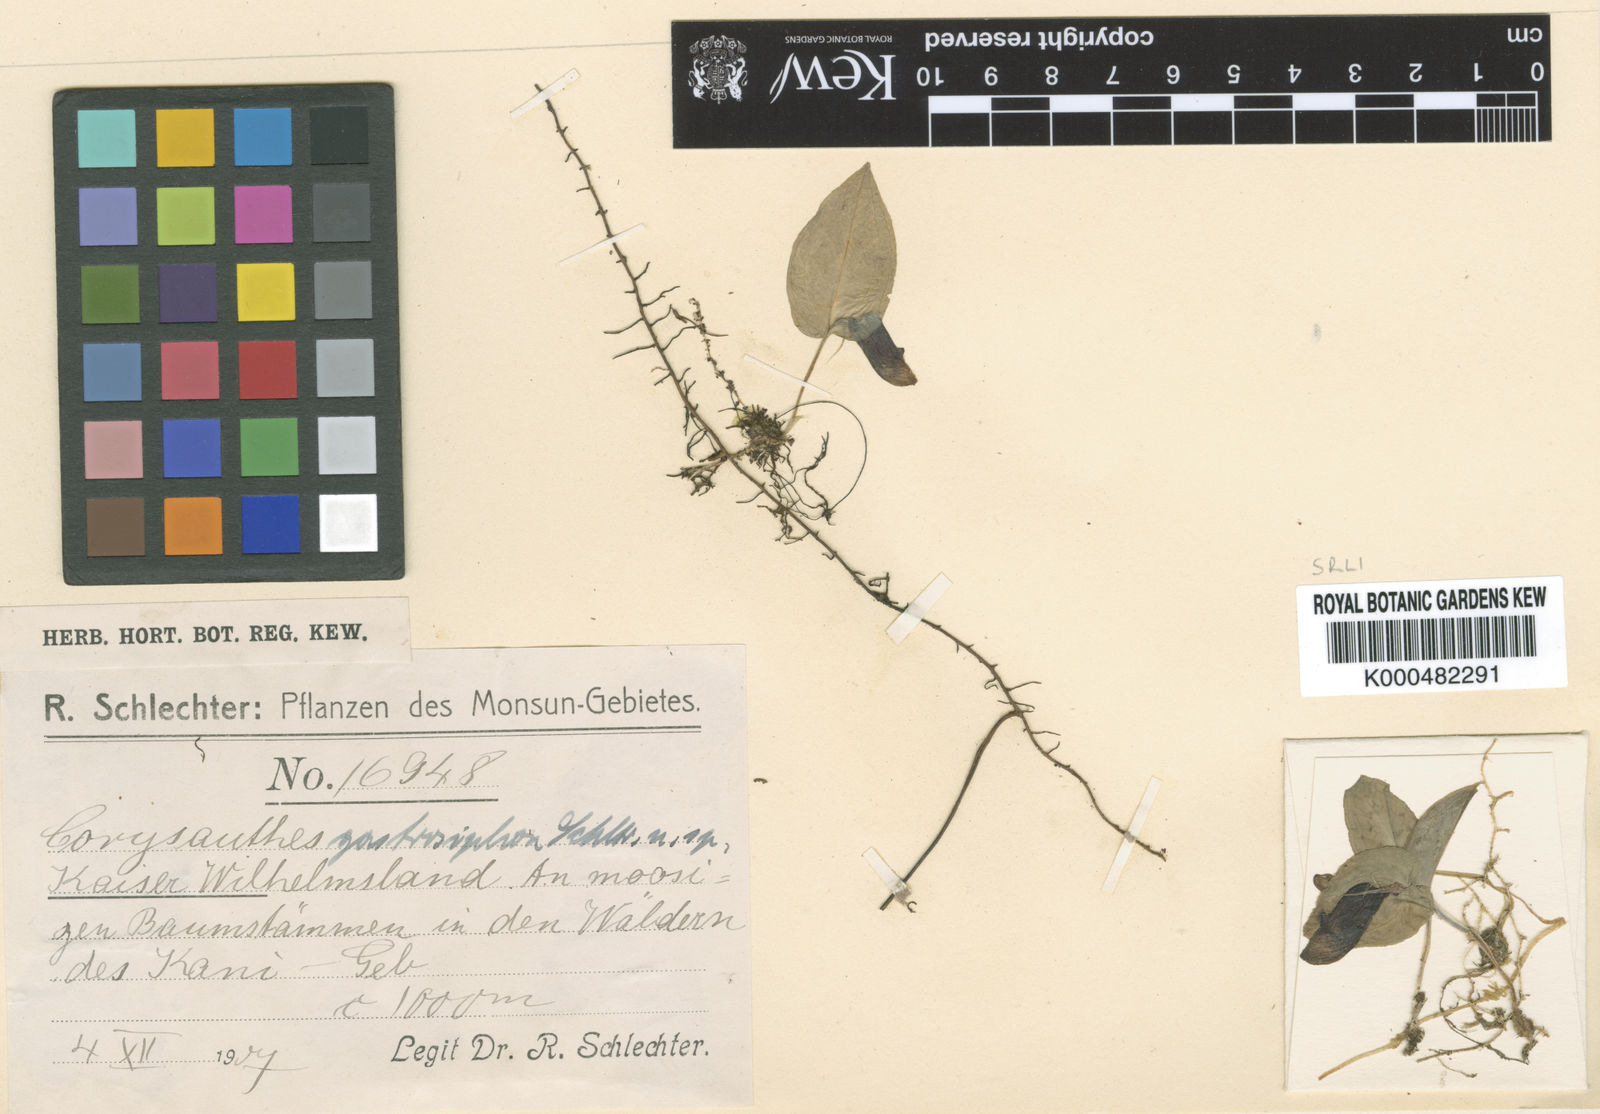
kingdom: Plantae
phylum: Tracheophyta
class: Liliopsida
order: Asparagales
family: Orchidaceae
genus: Corybas
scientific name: Corybas gastrosiphon
